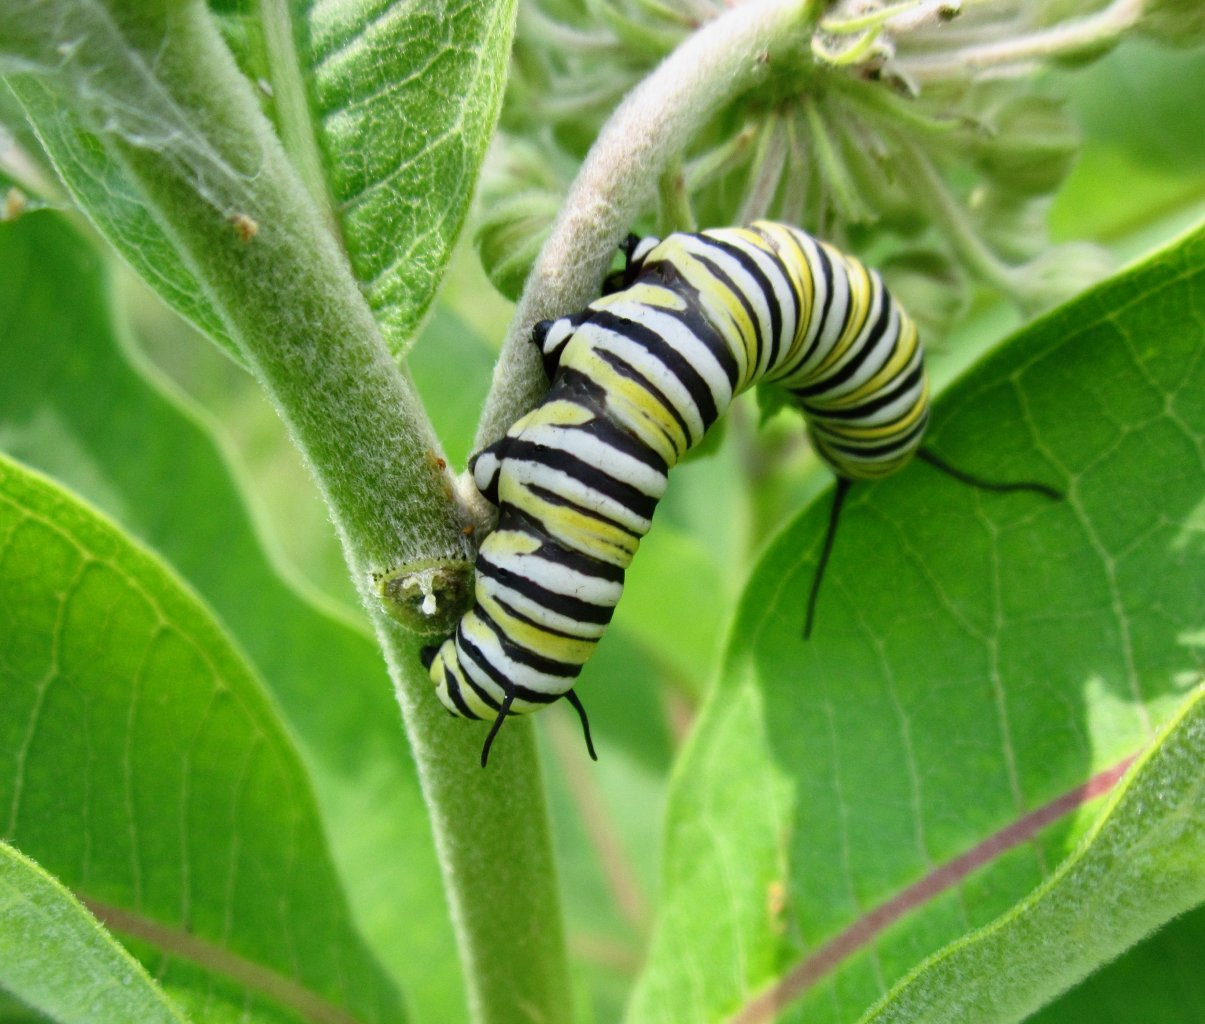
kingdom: Animalia
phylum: Arthropoda
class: Insecta
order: Lepidoptera
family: Nymphalidae
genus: Danaus
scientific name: Danaus plexippus
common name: Monarch
